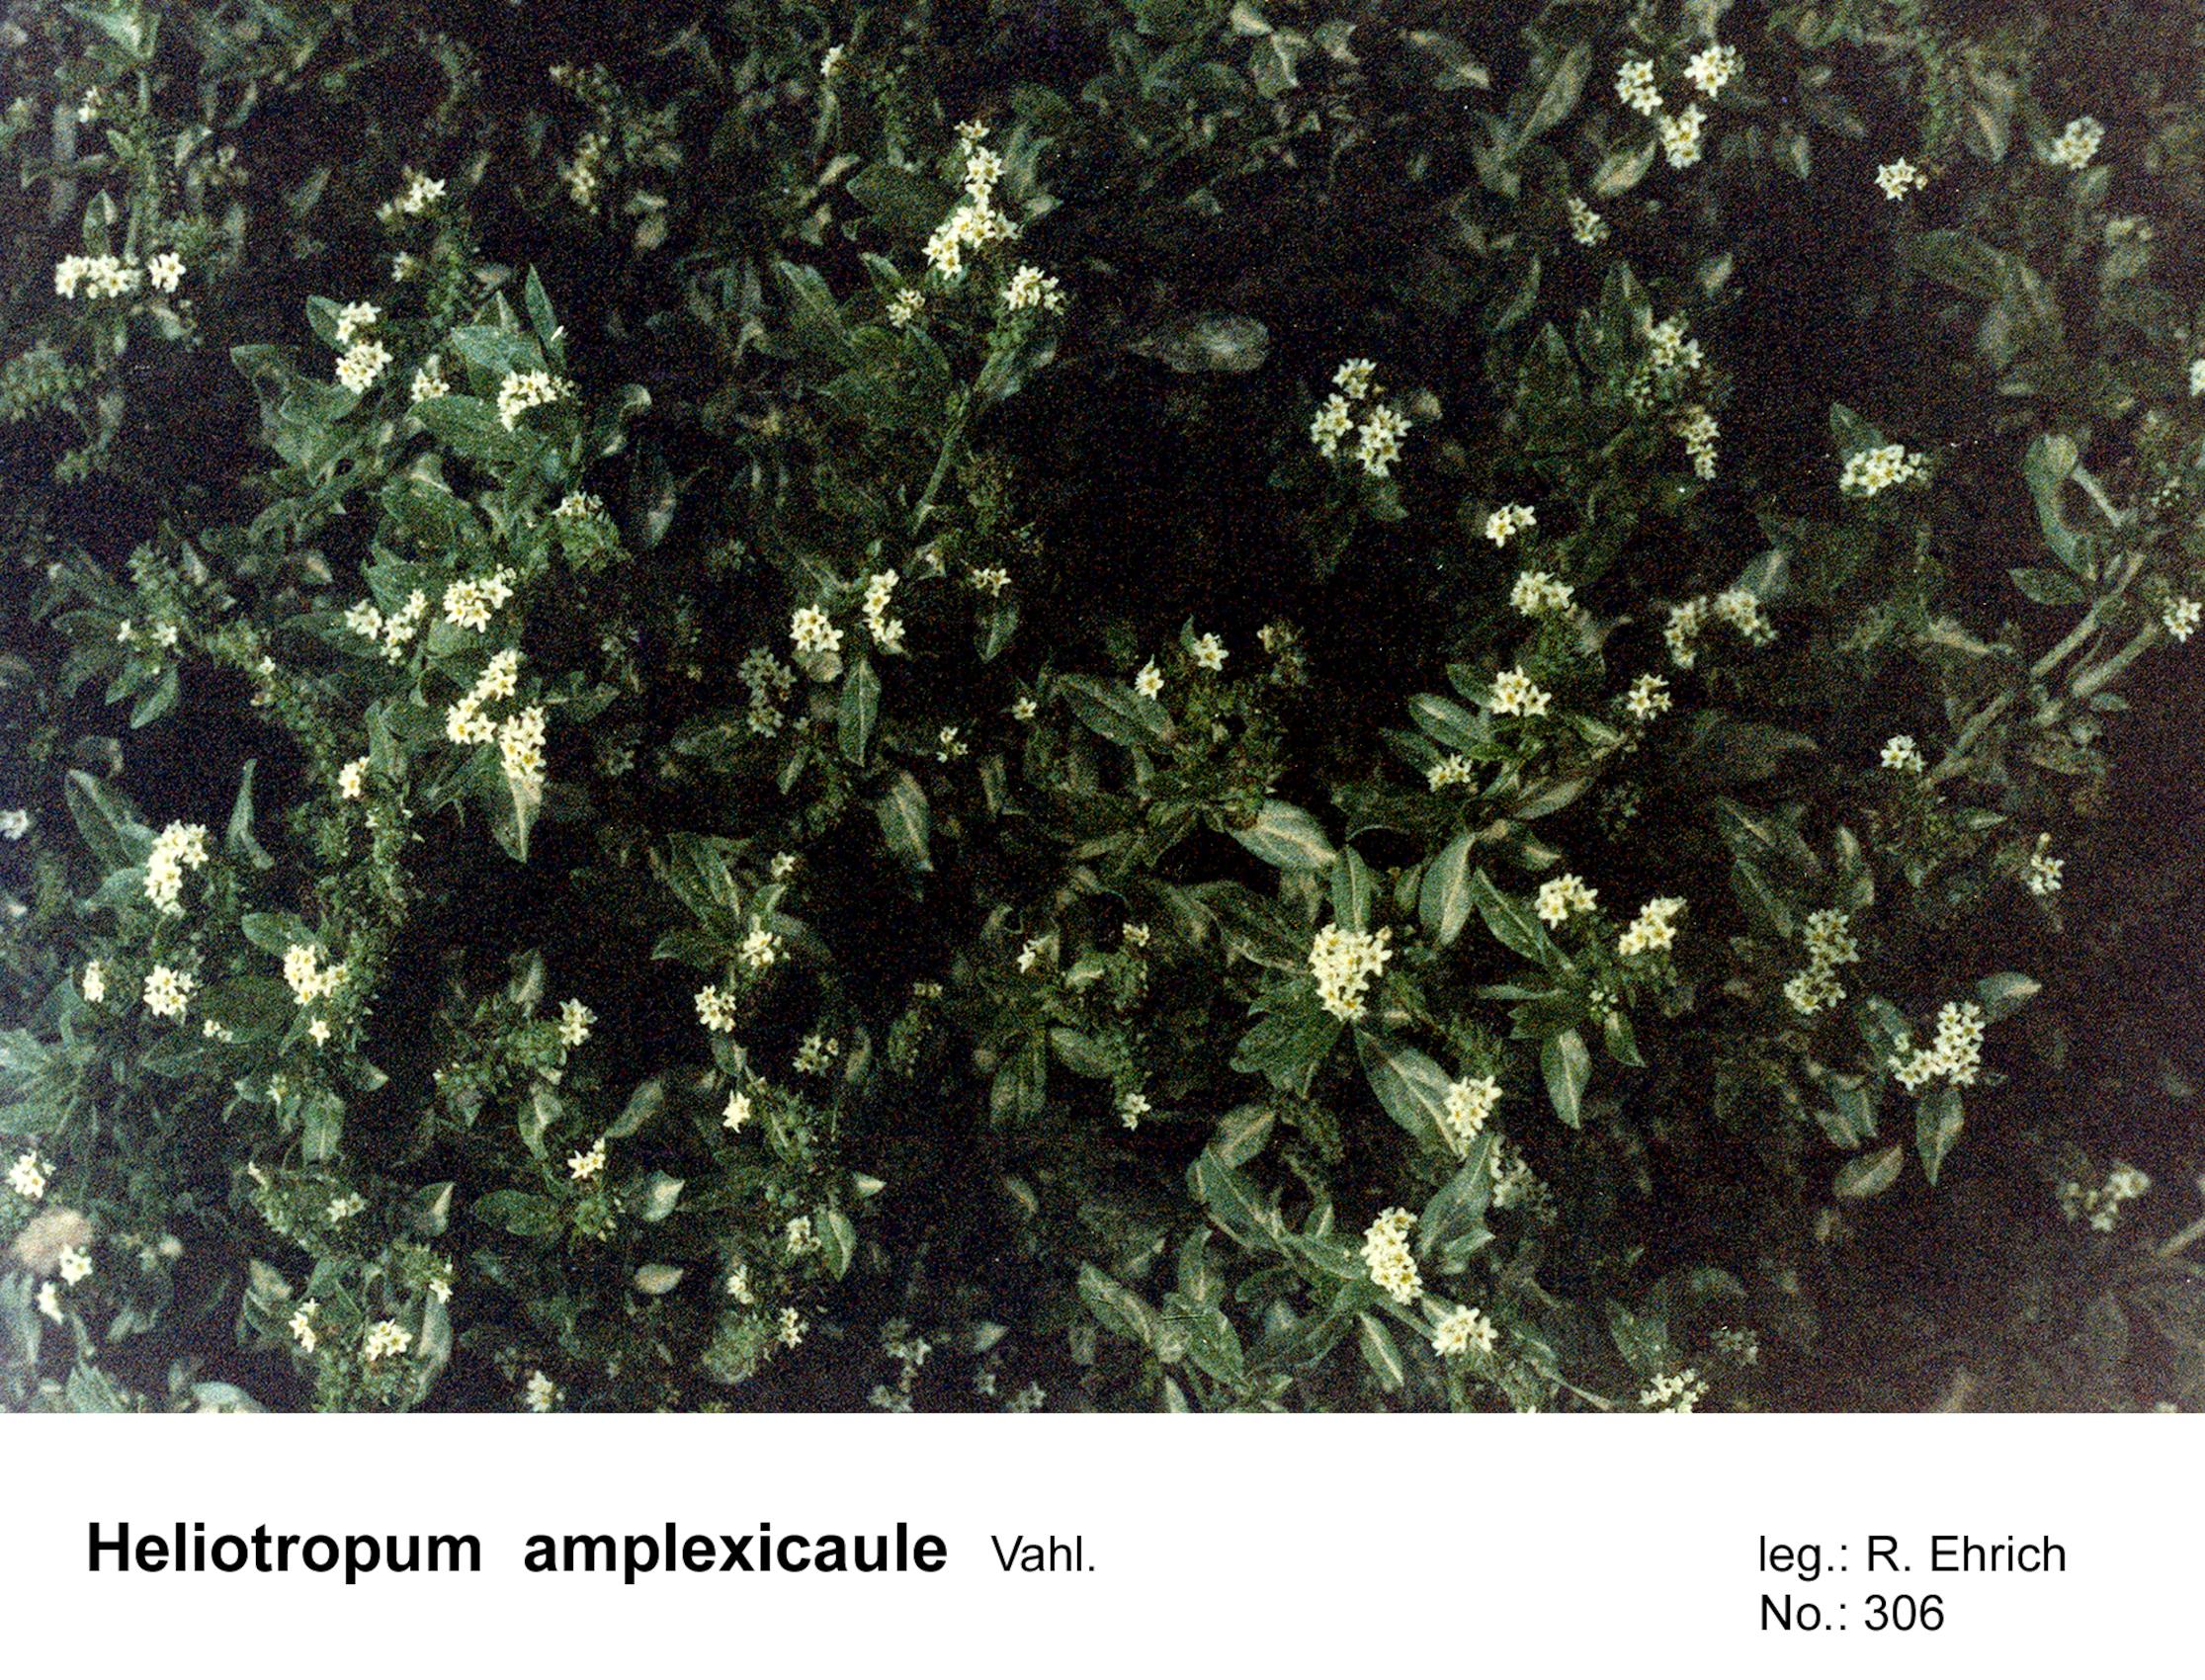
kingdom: Plantae
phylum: Tracheophyta
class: Magnoliopsida
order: Boraginales
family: Heliotropiaceae
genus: Heliotropium
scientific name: Heliotropium amplexicaule
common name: Clasping heliotrope
